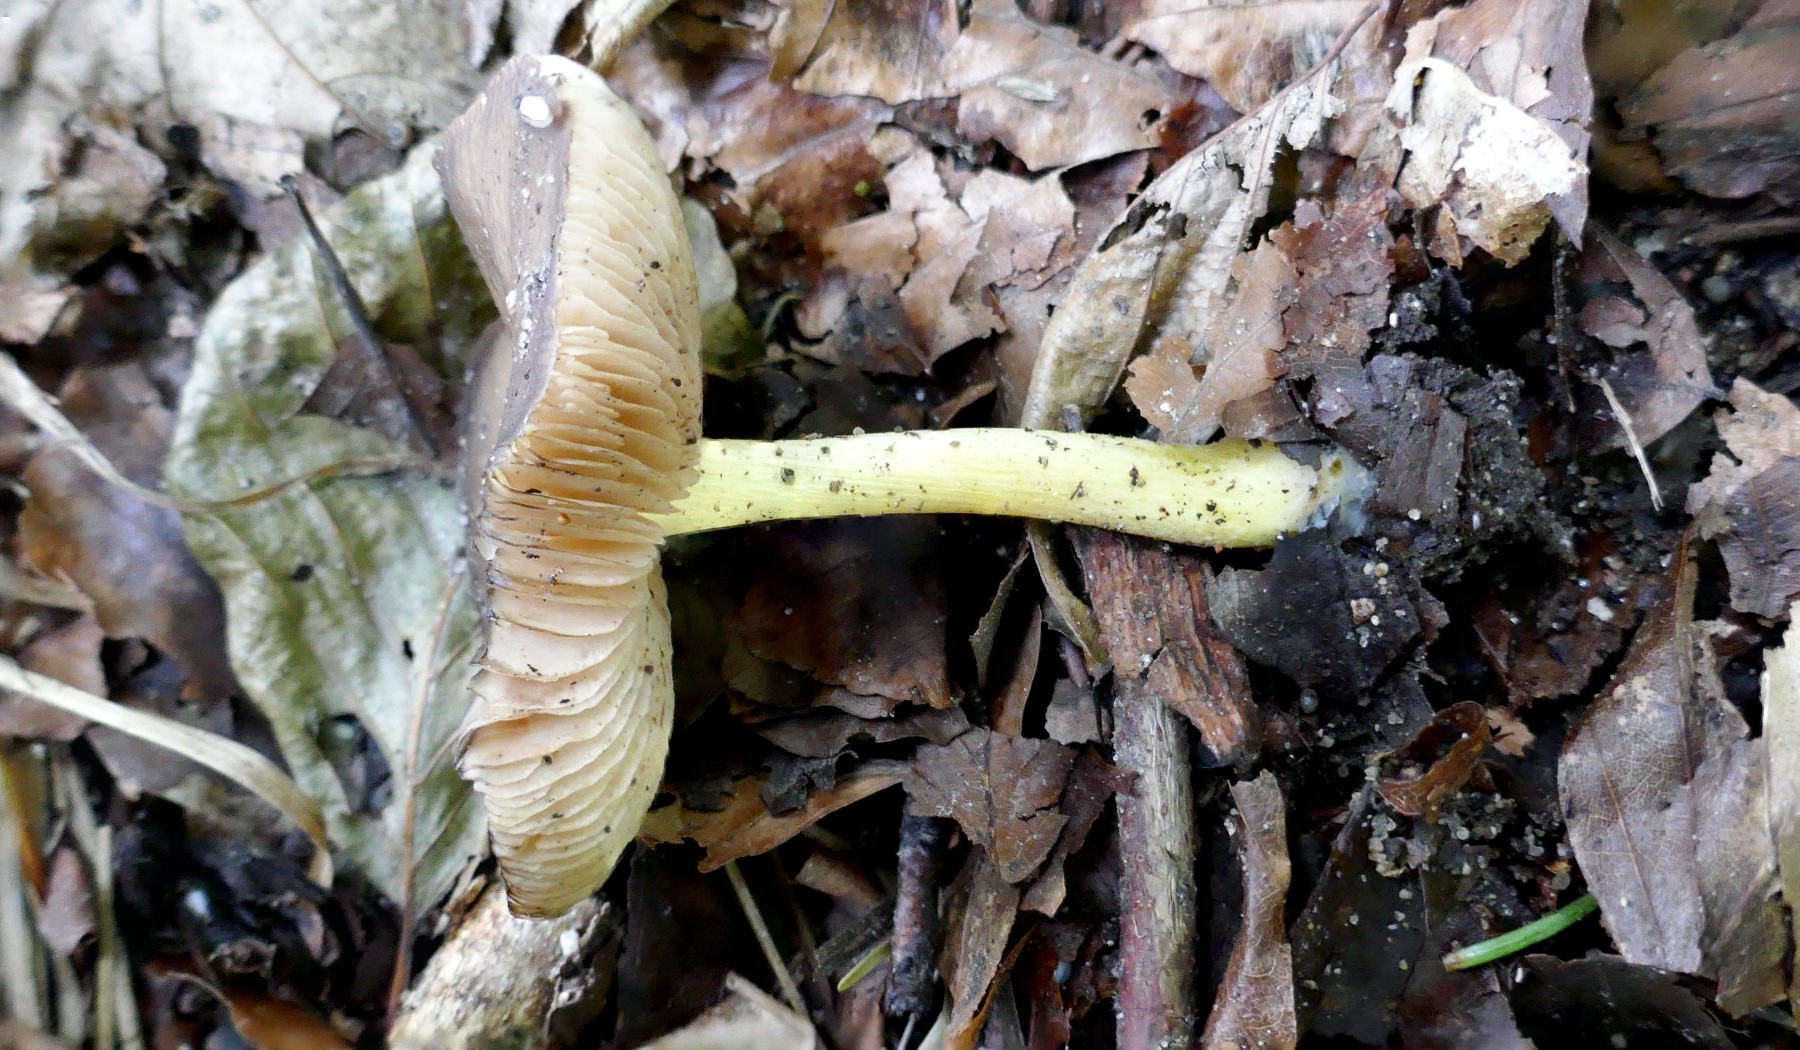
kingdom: Fungi
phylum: Basidiomycota
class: Agaricomycetes
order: Agaricales
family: Pluteaceae
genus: Pluteus
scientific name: Pluteus romellii
